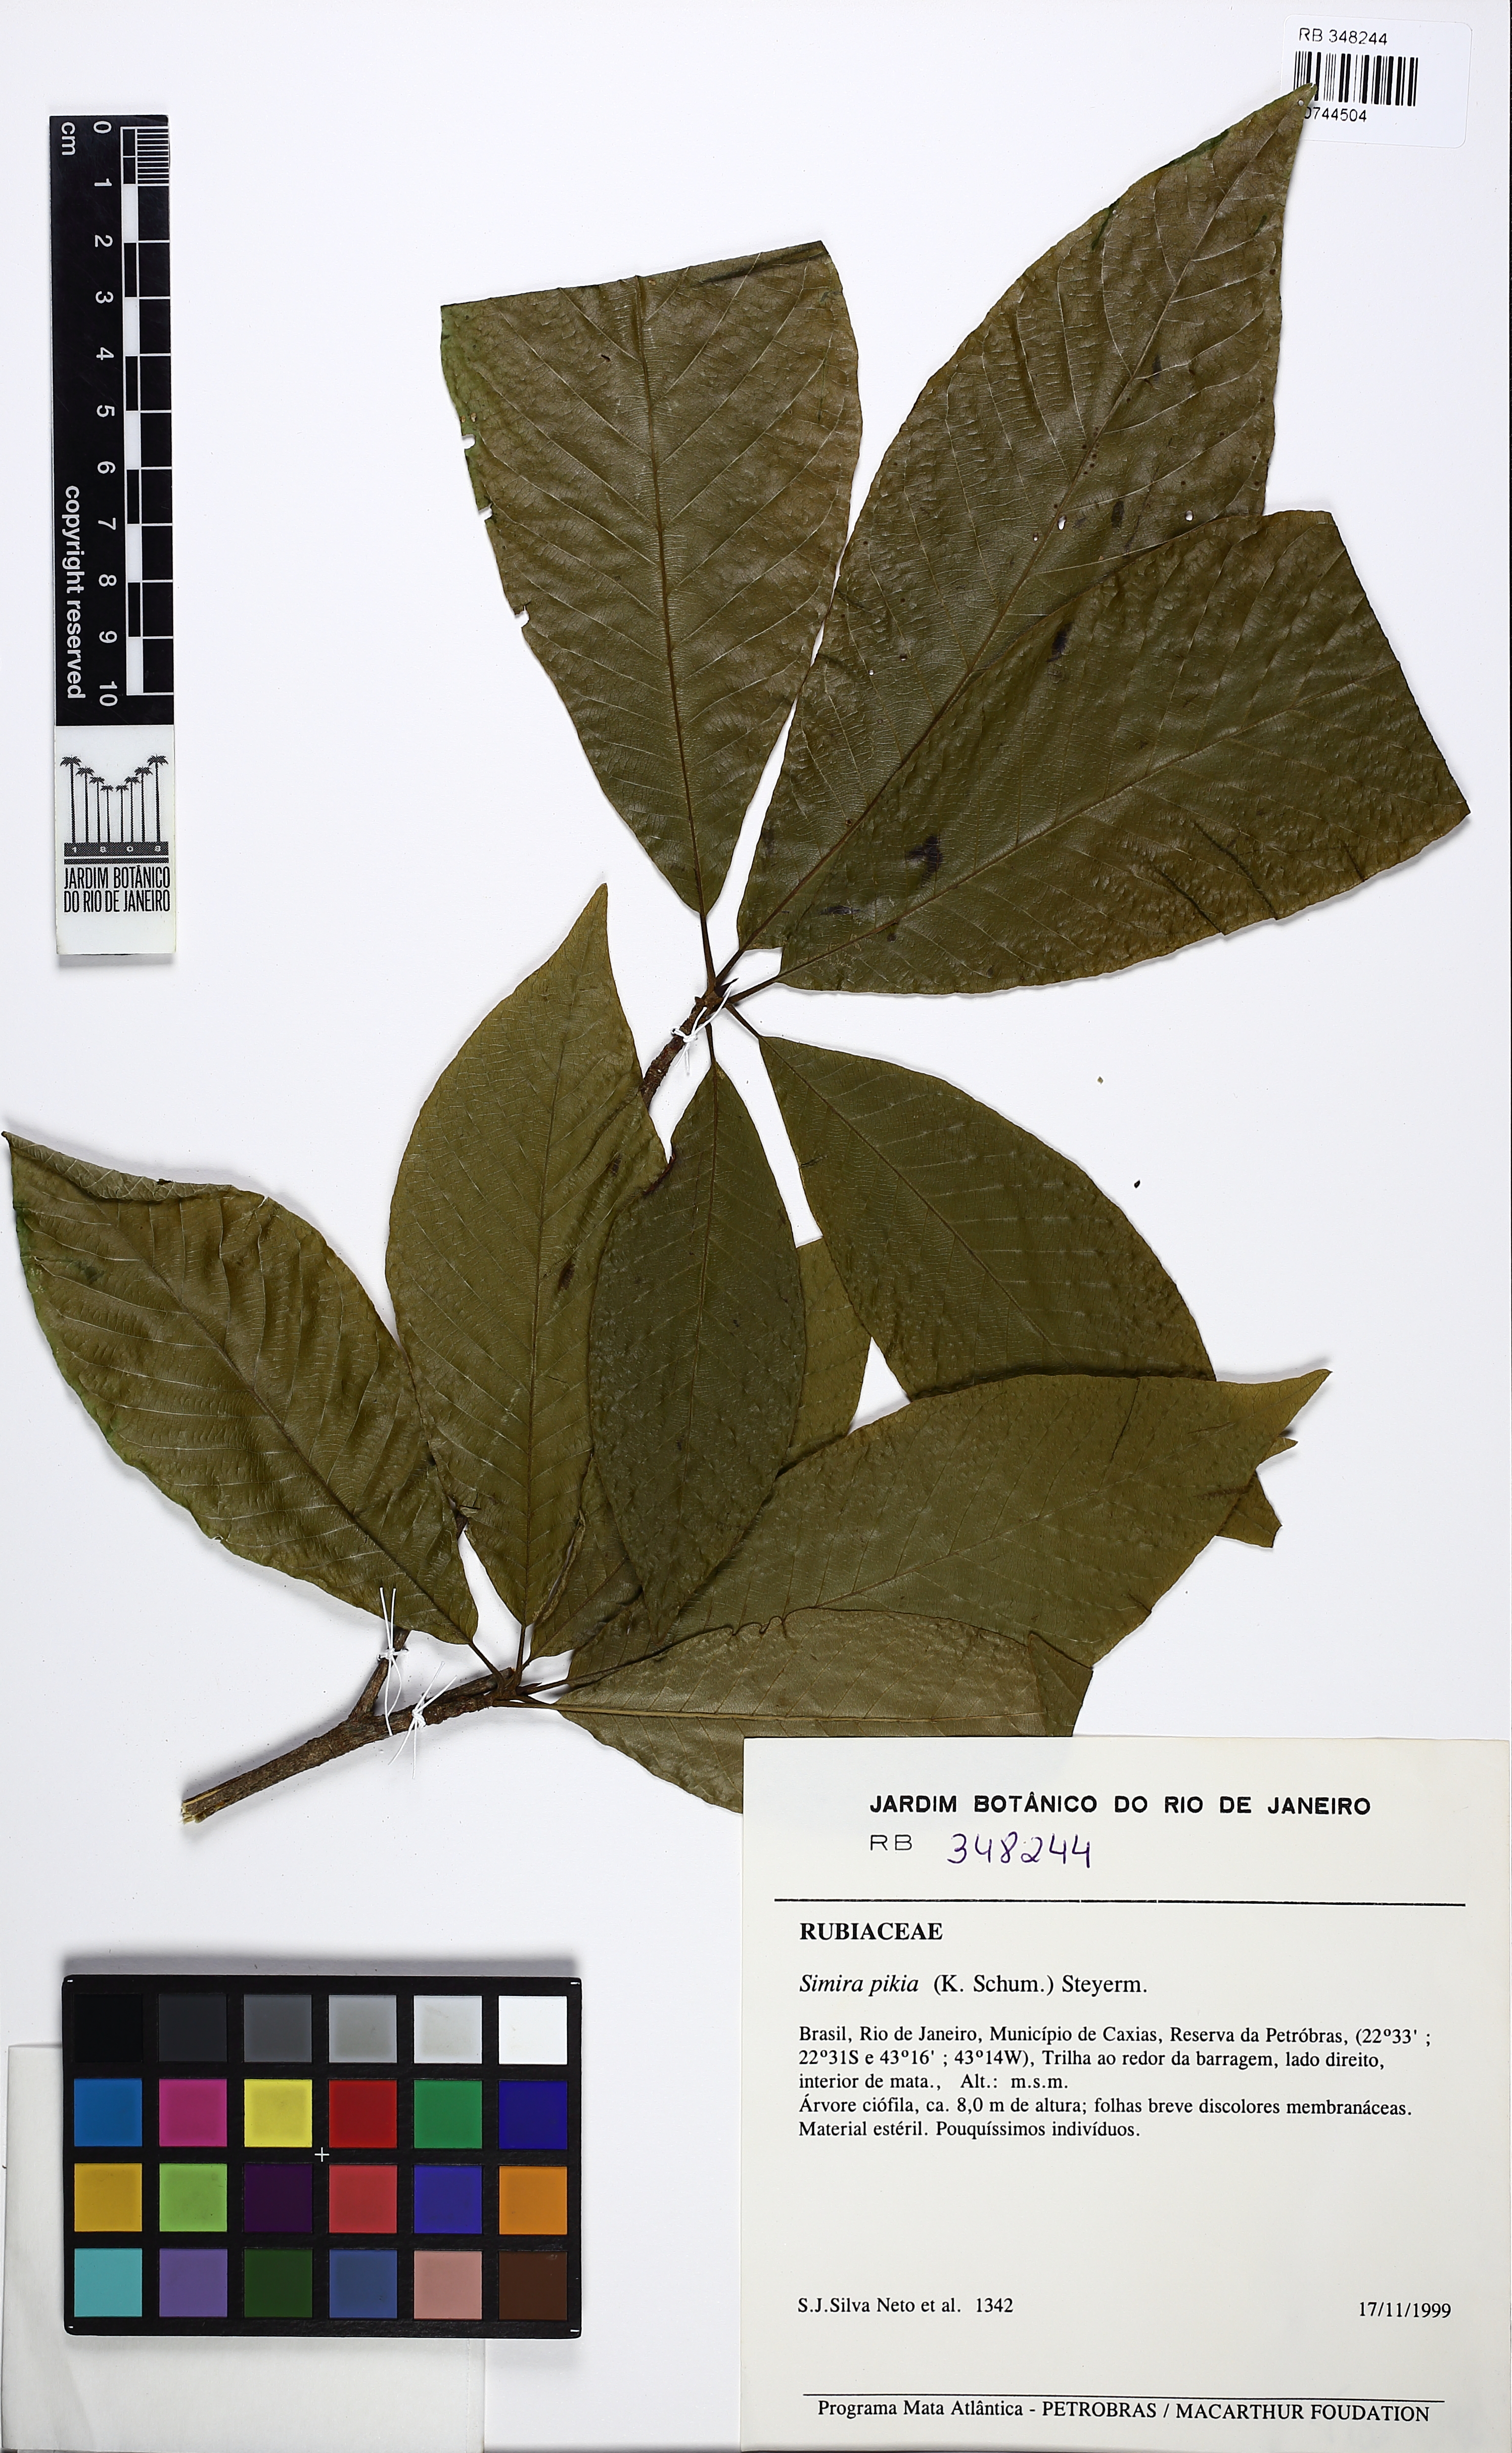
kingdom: Plantae
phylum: Tracheophyta
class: Magnoliopsida
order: Gentianales
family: Rubiaceae
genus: Simira
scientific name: Simira pikia
